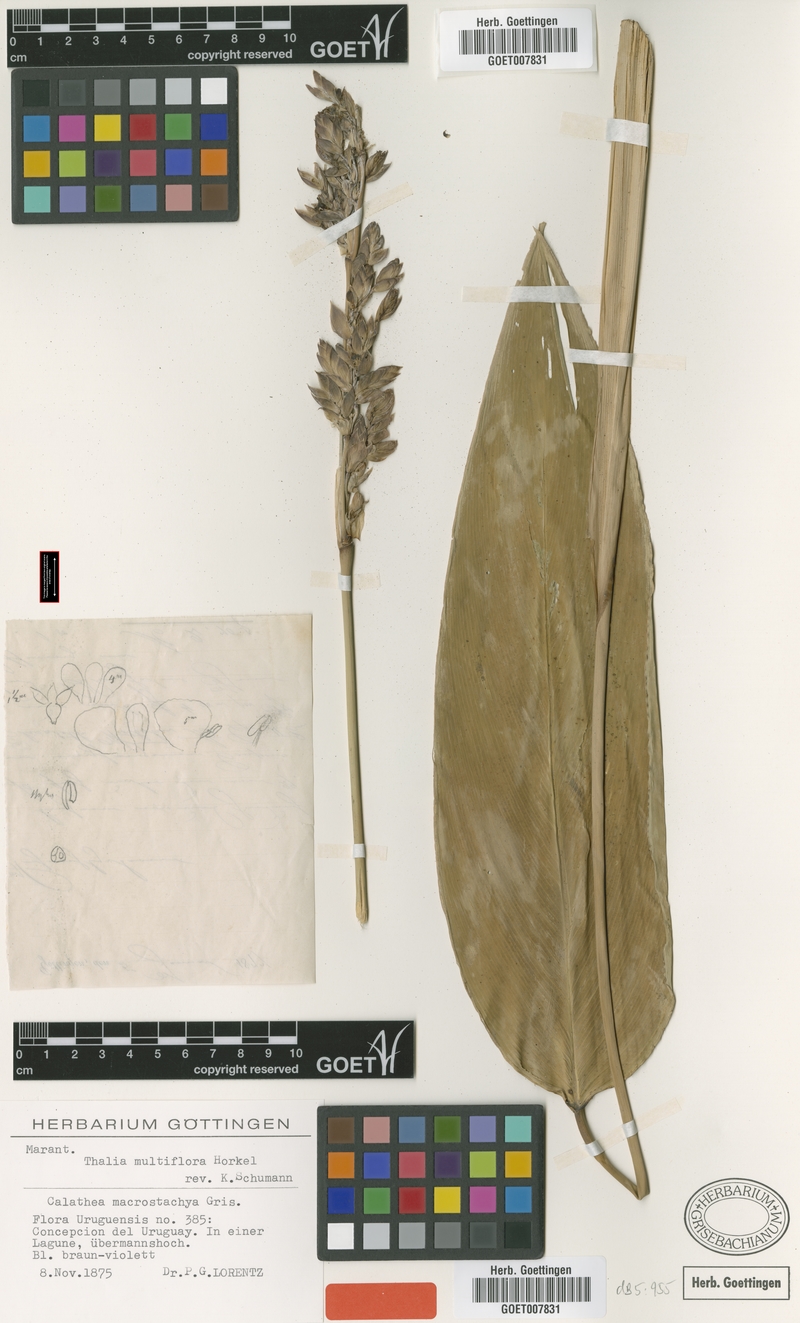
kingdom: Plantae
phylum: Tracheophyta
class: Liliopsida
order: Zingiberales
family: Marantaceae
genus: Thalia
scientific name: Thalia multiflora
